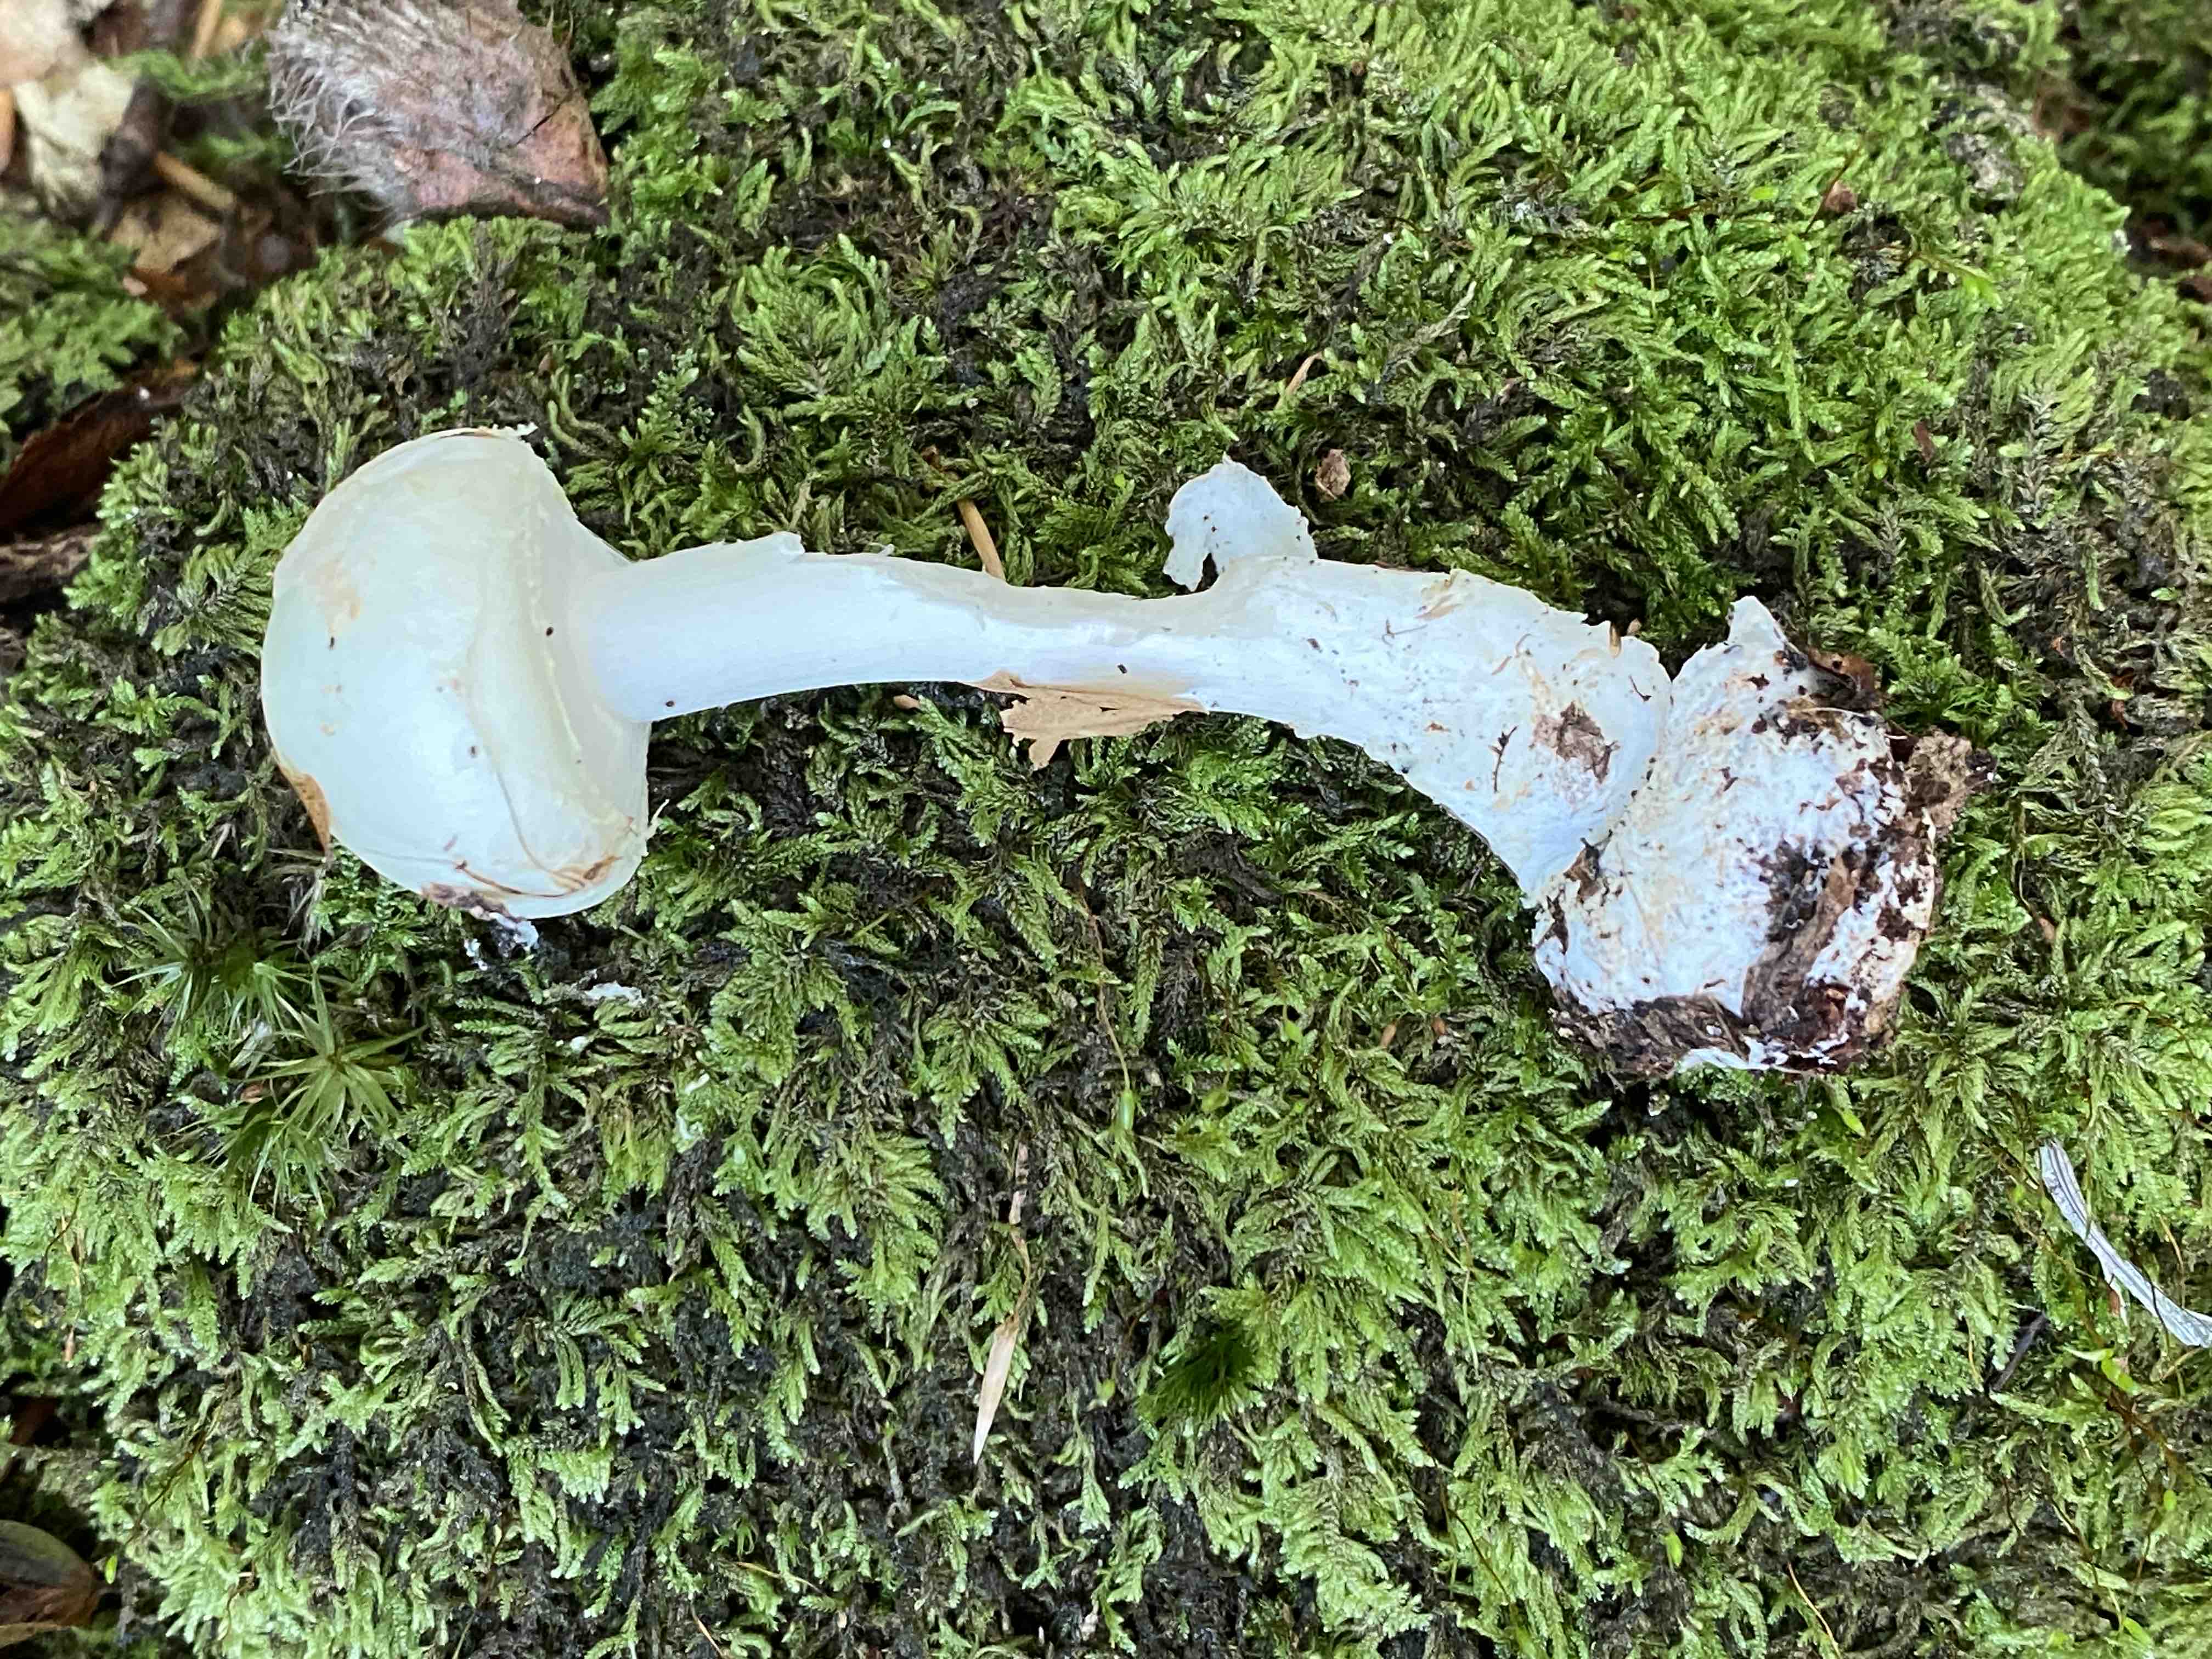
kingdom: Fungi
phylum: Basidiomycota
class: Agaricomycetes
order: Agaricales
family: Amanitaceae
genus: Amanita
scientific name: Amanita citrina
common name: kugleknoldet fluesvamp
